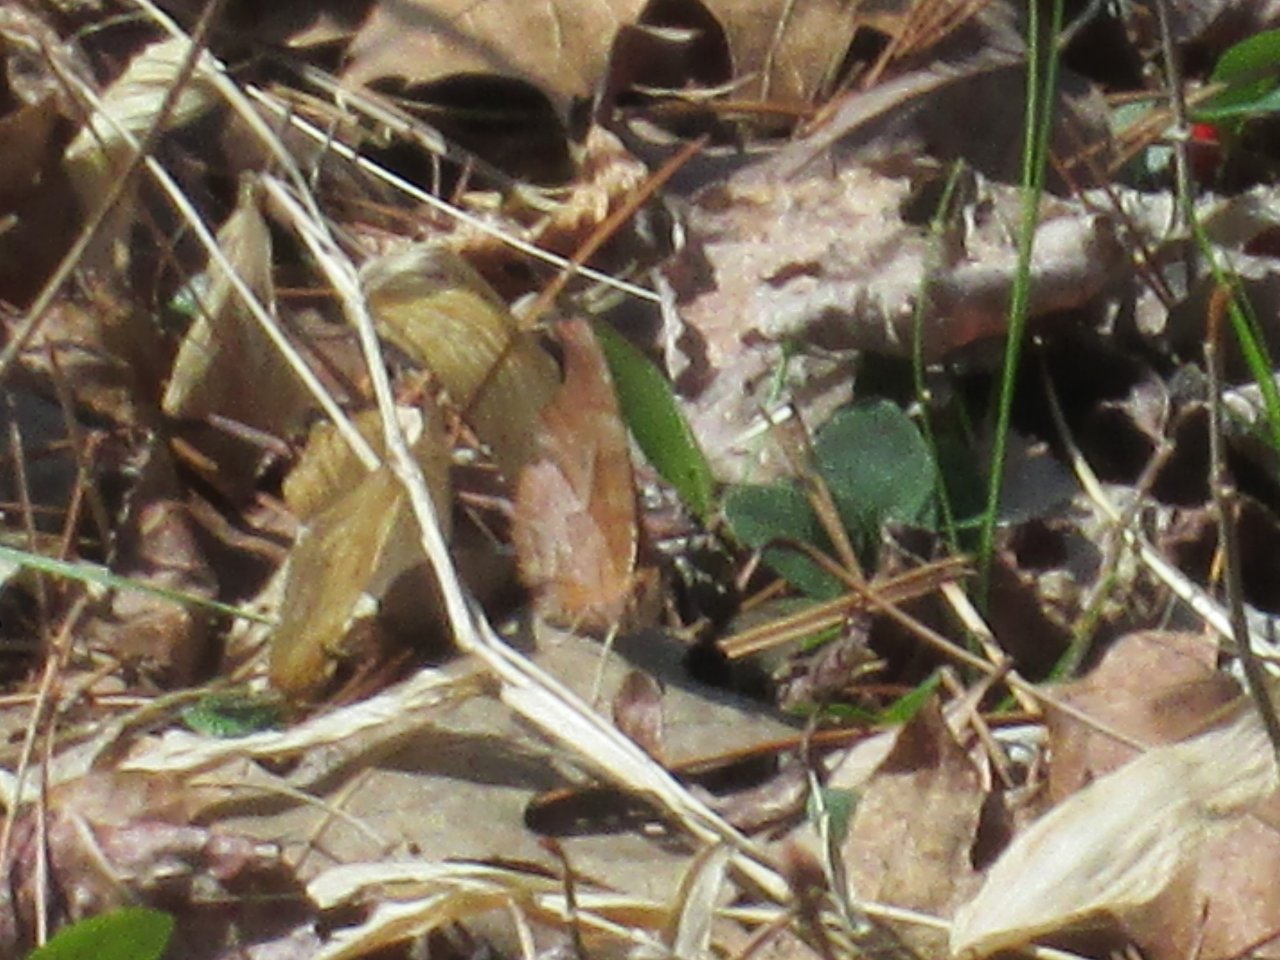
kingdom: Animalia
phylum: Arthropoda
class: Insecta
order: Lepidoptera
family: Nymphalidae
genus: Polygonia
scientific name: Polygonia interrogationis
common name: Question Mark
